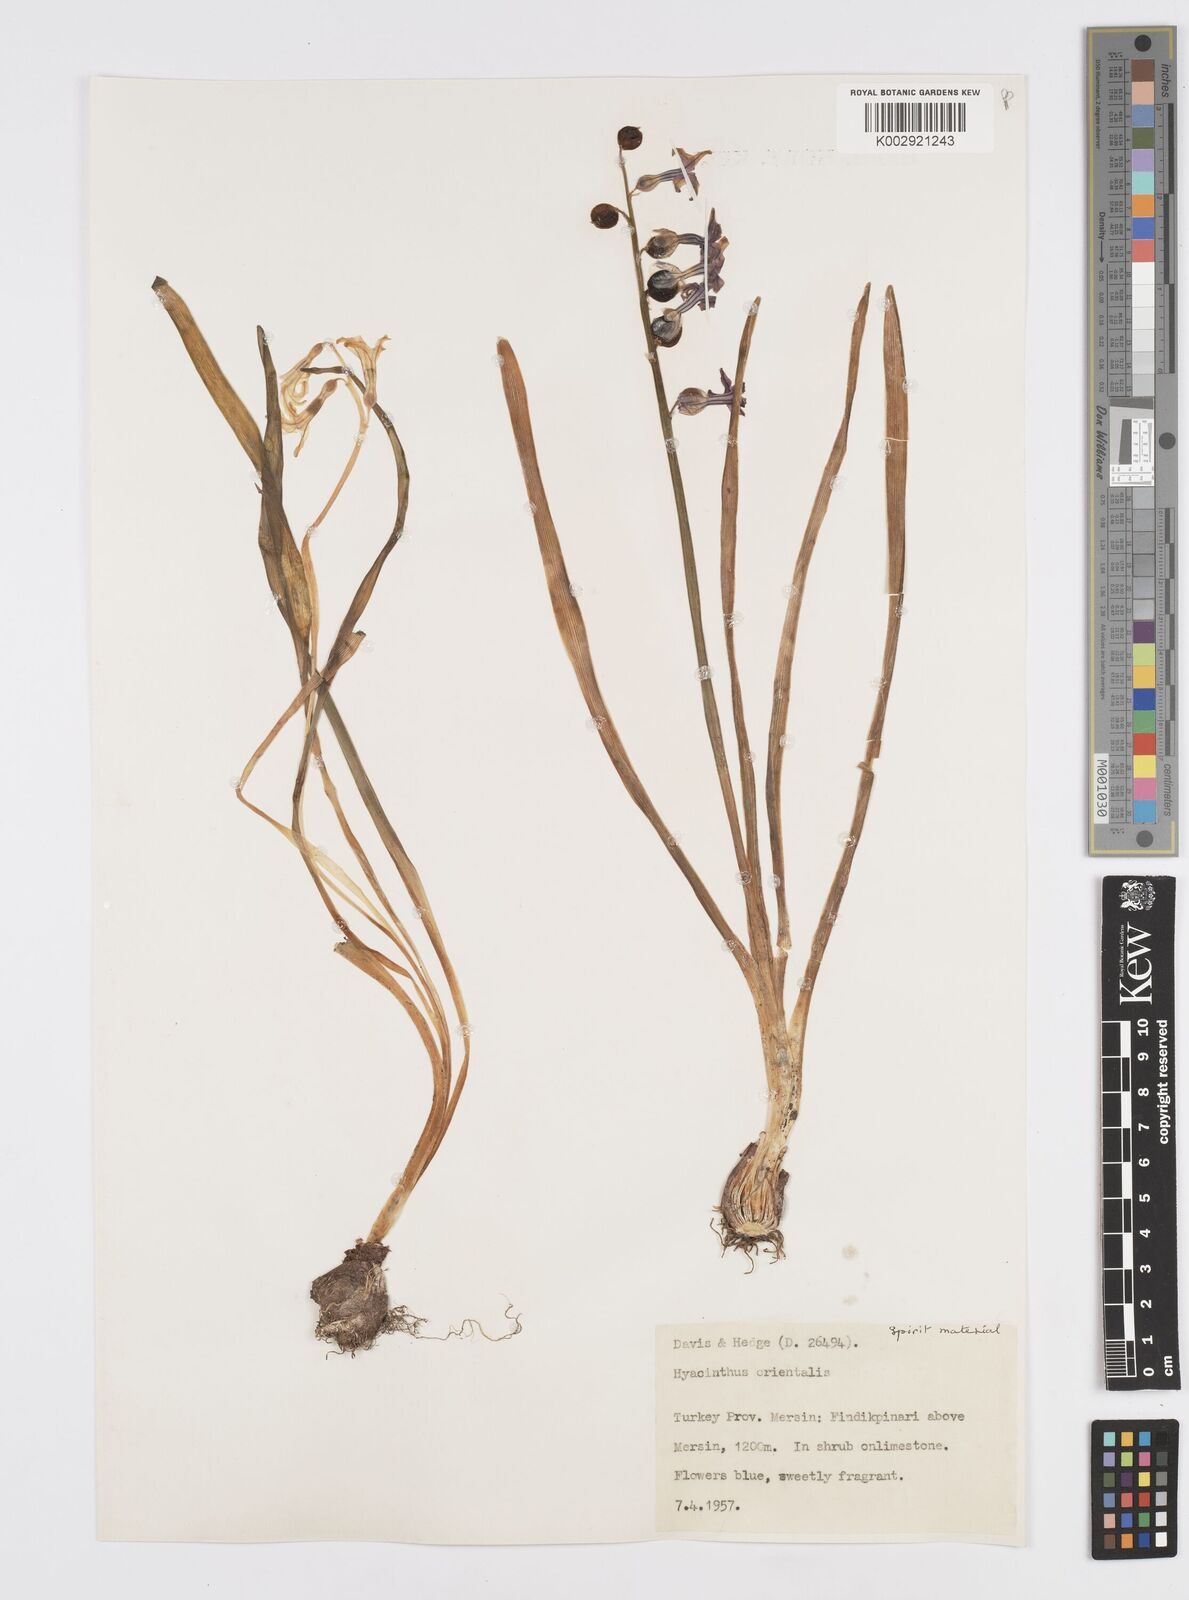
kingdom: Plantae
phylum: Tracheophyta
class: Liliopsida
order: Asparagales
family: Asparagaceae
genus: Hyacinthus
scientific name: Hyacinthus orientalis
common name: Hyacinth
